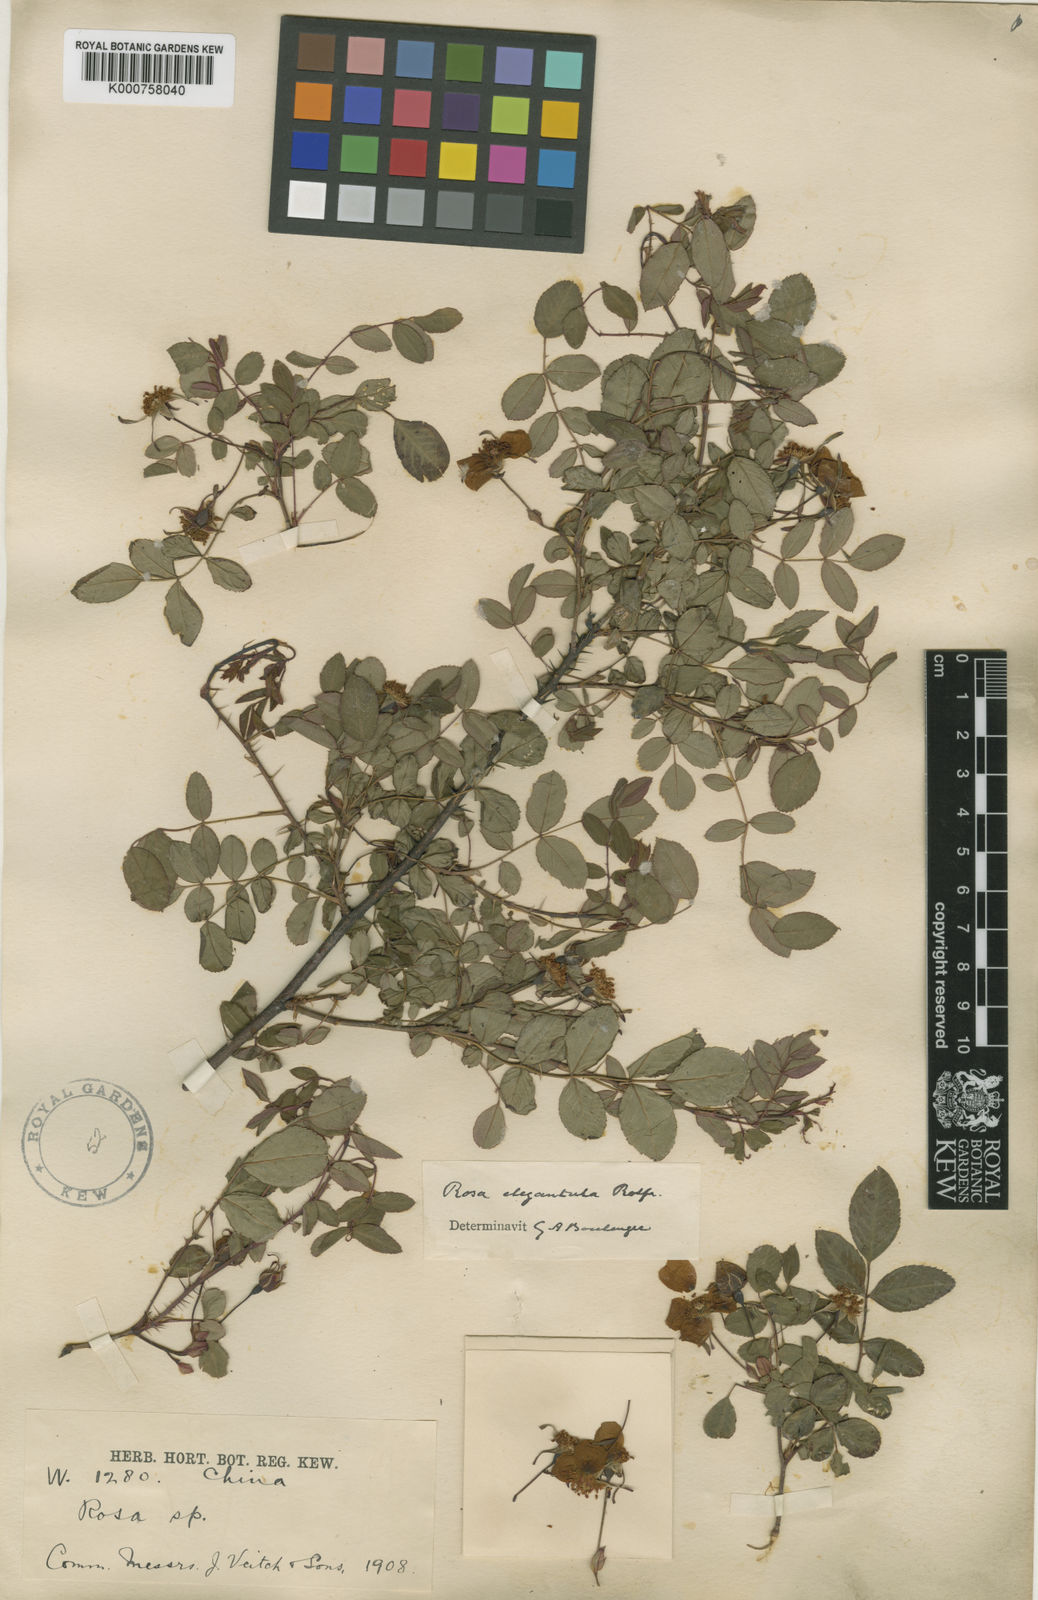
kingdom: Plantae
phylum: Tracheophyta
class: Magnoliopsida
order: Rosales
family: Rosaceae
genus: Rosa
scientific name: Rosa persetosa
